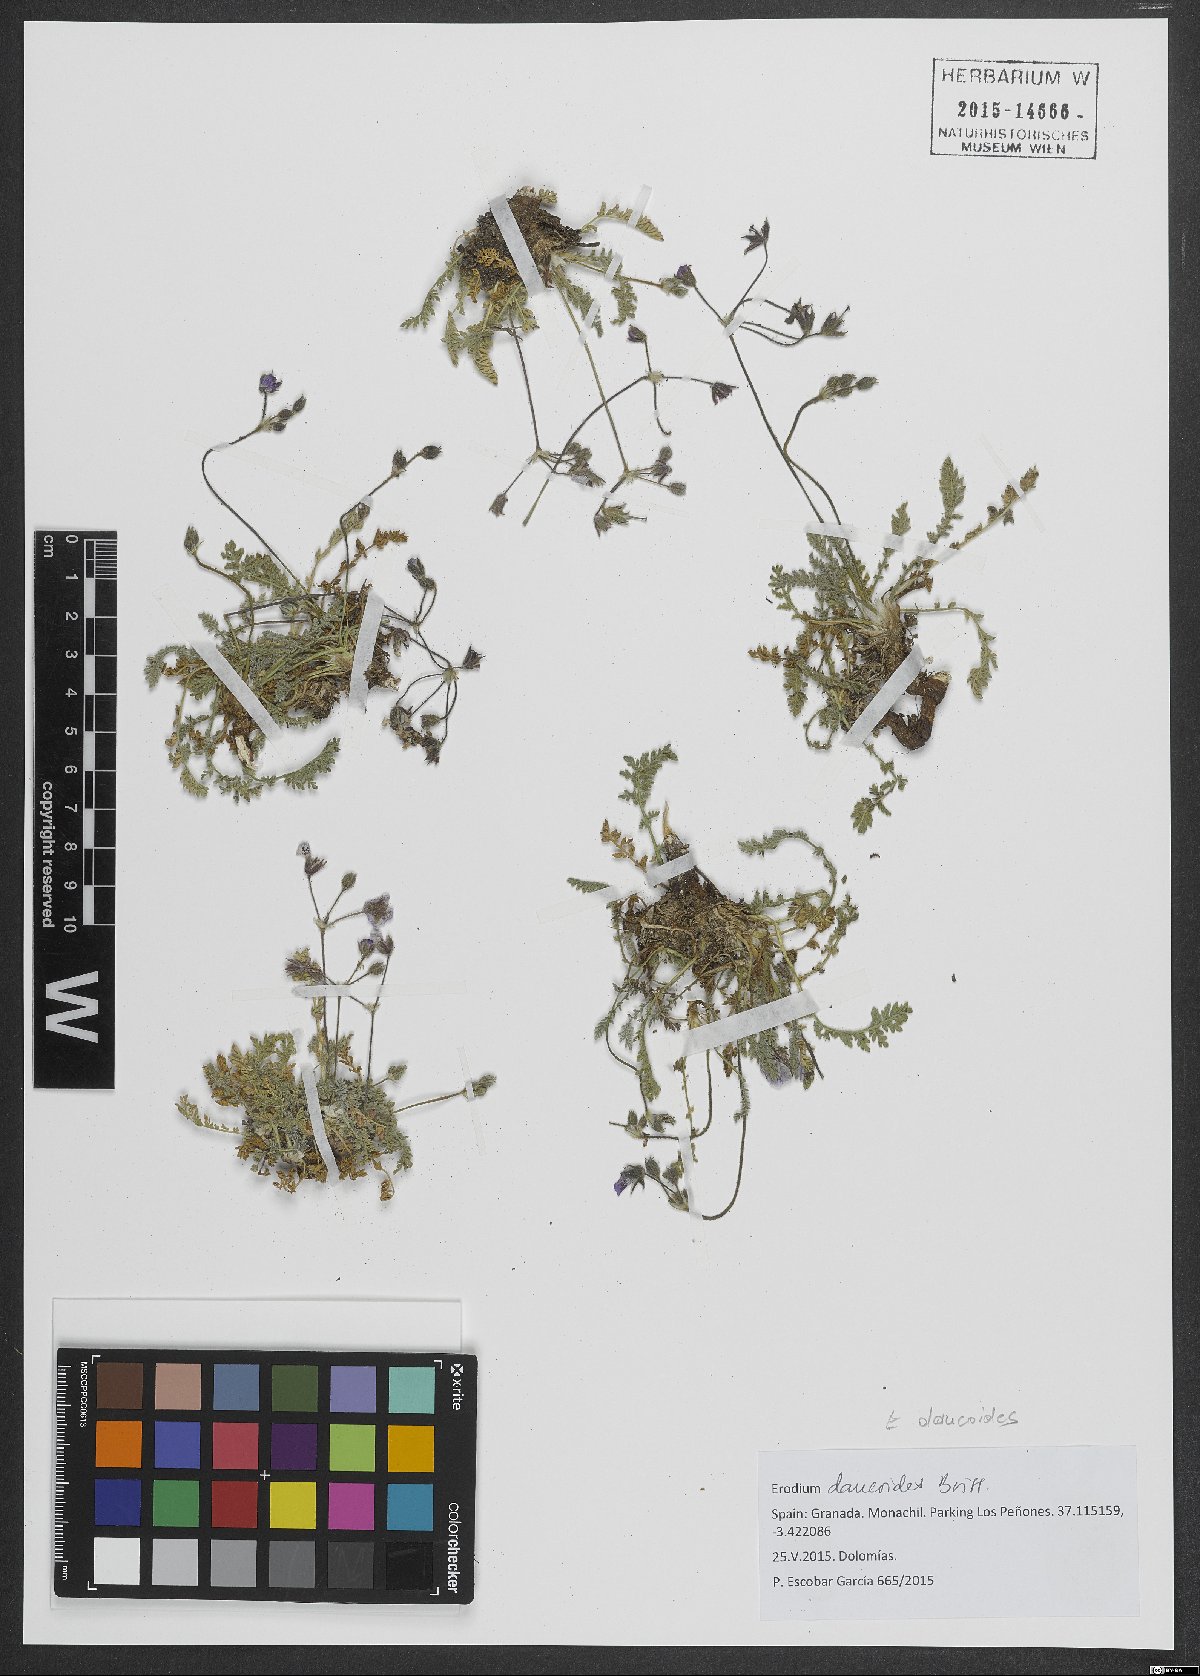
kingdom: Plantae
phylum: Tracheophyta
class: Magnoliopsida
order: Geraniales
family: Geraniaceae
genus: Erodium
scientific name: Erodium daucoides
